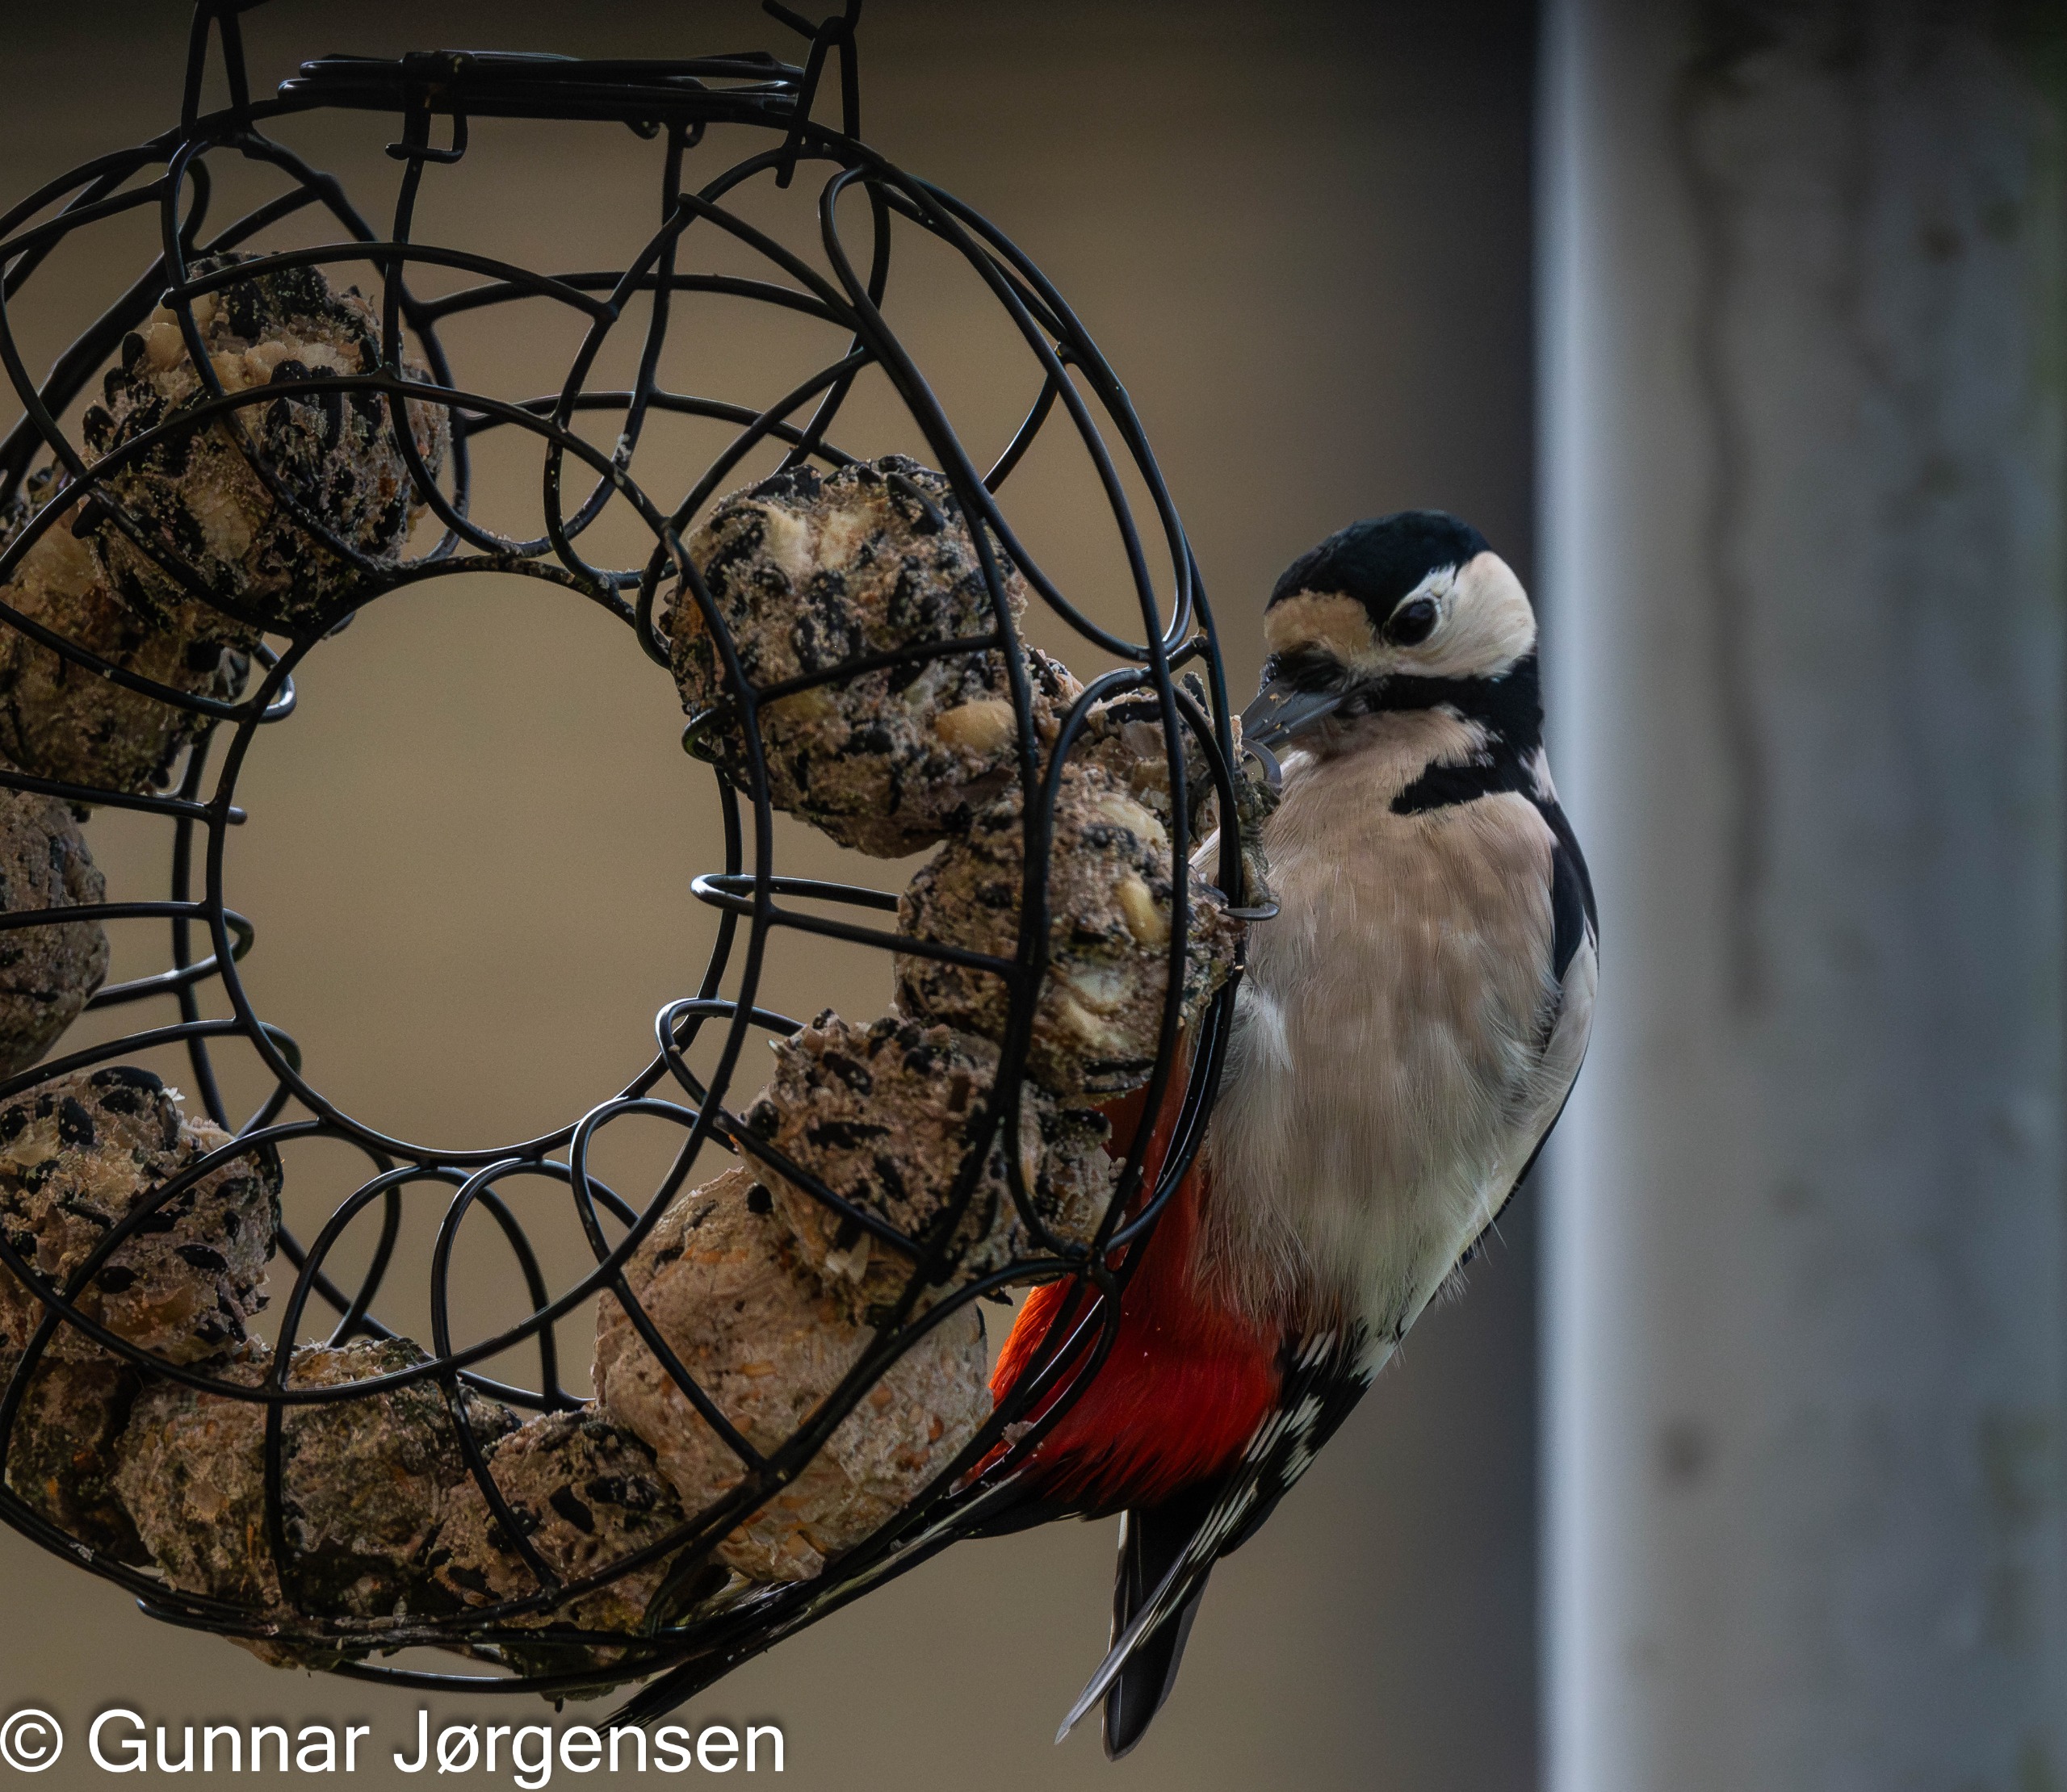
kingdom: Animalia
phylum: Chordata
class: Aves
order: Piciformes
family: Picidae
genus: Dendrocopos
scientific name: Dendrocopos major
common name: Stor flagspætte
